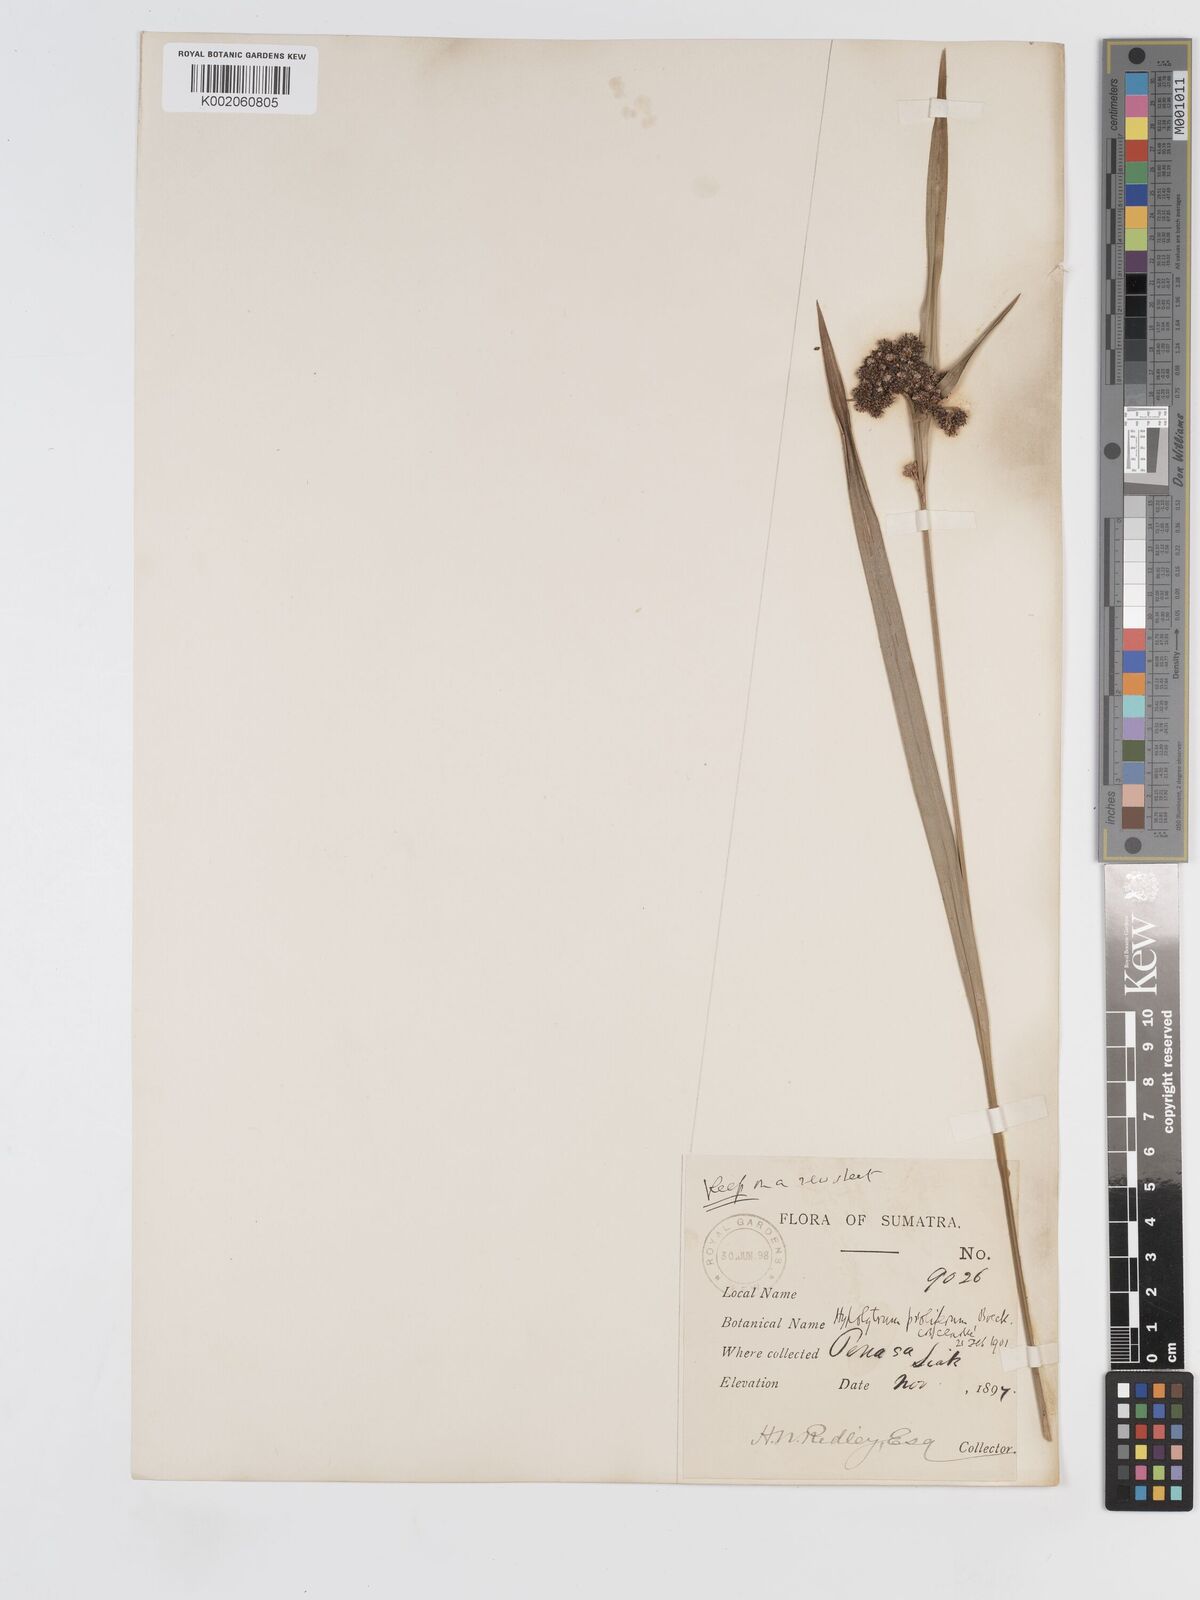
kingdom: Plantae
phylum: Tracheophyta
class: Liliopsida
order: Poales
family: Cyperaceae
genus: Hypolytrum
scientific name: Hypolytrum nemorum
